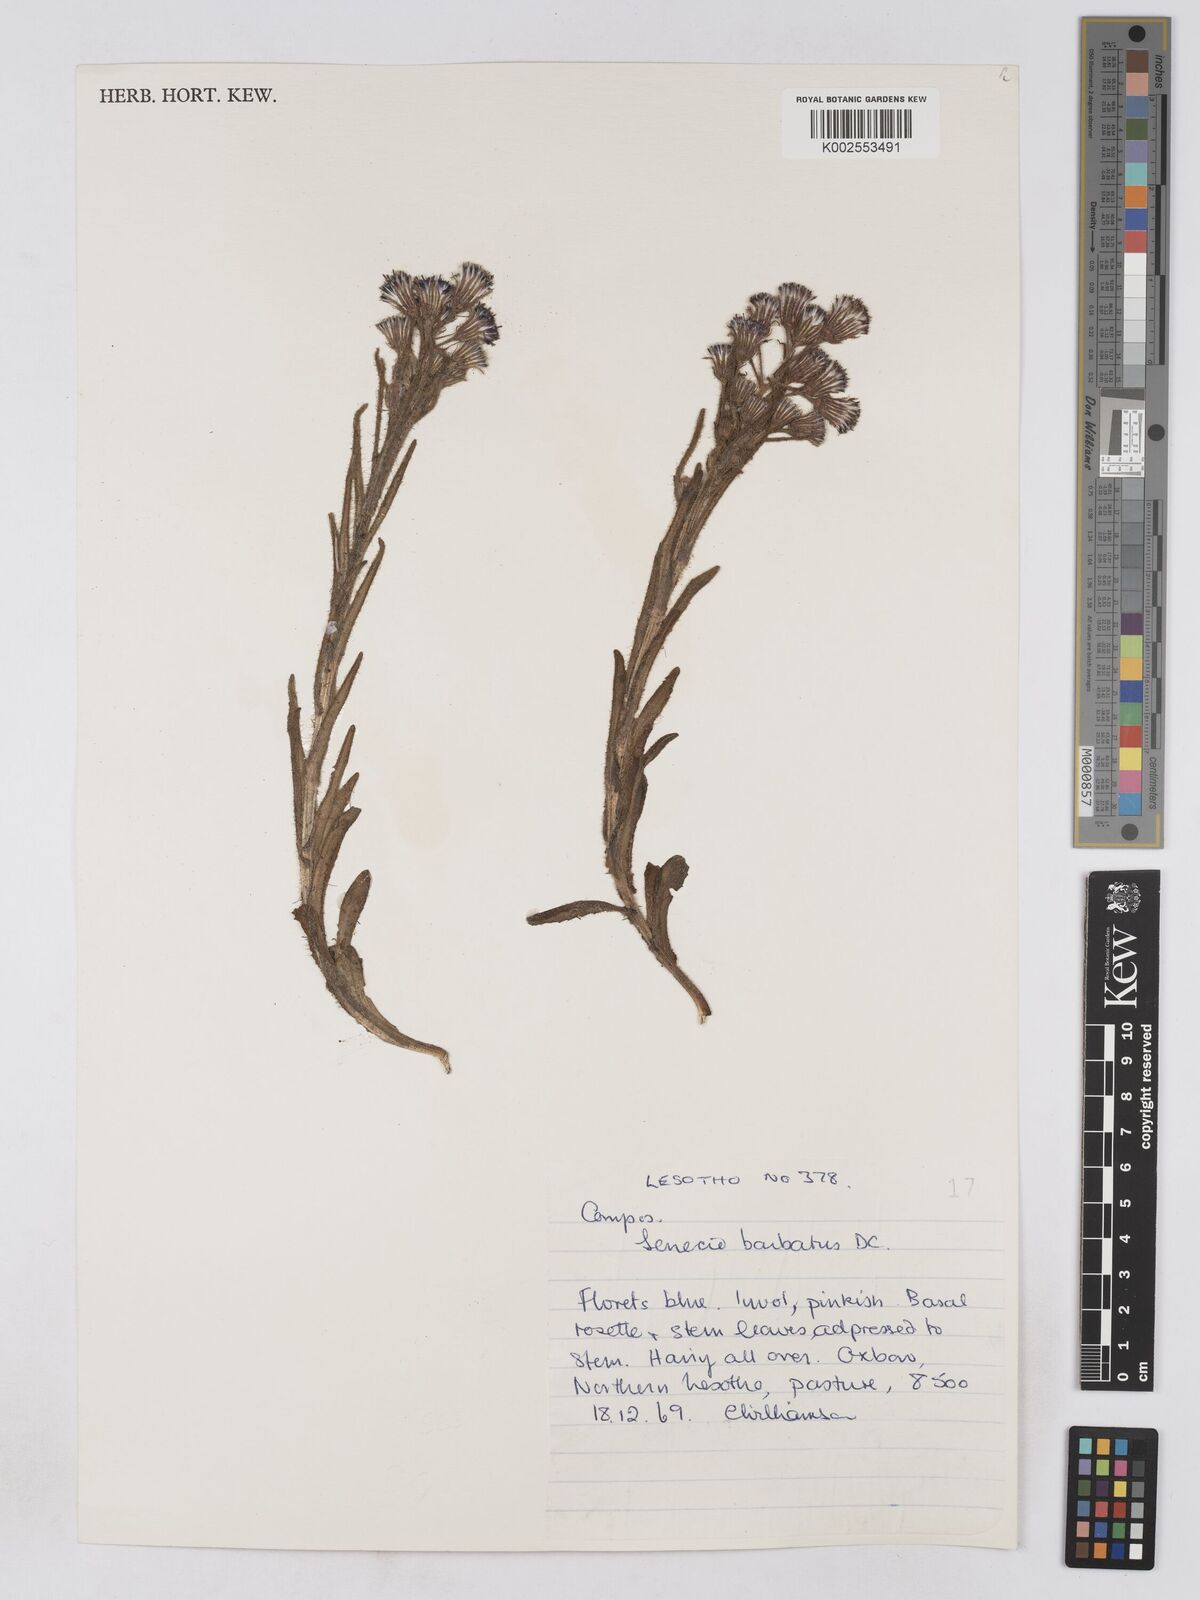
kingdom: Plantae
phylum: Tracheophyta
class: Magnoliopsida
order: Asterales
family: Asteraceae
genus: Senecio
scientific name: Senecio barbatus
